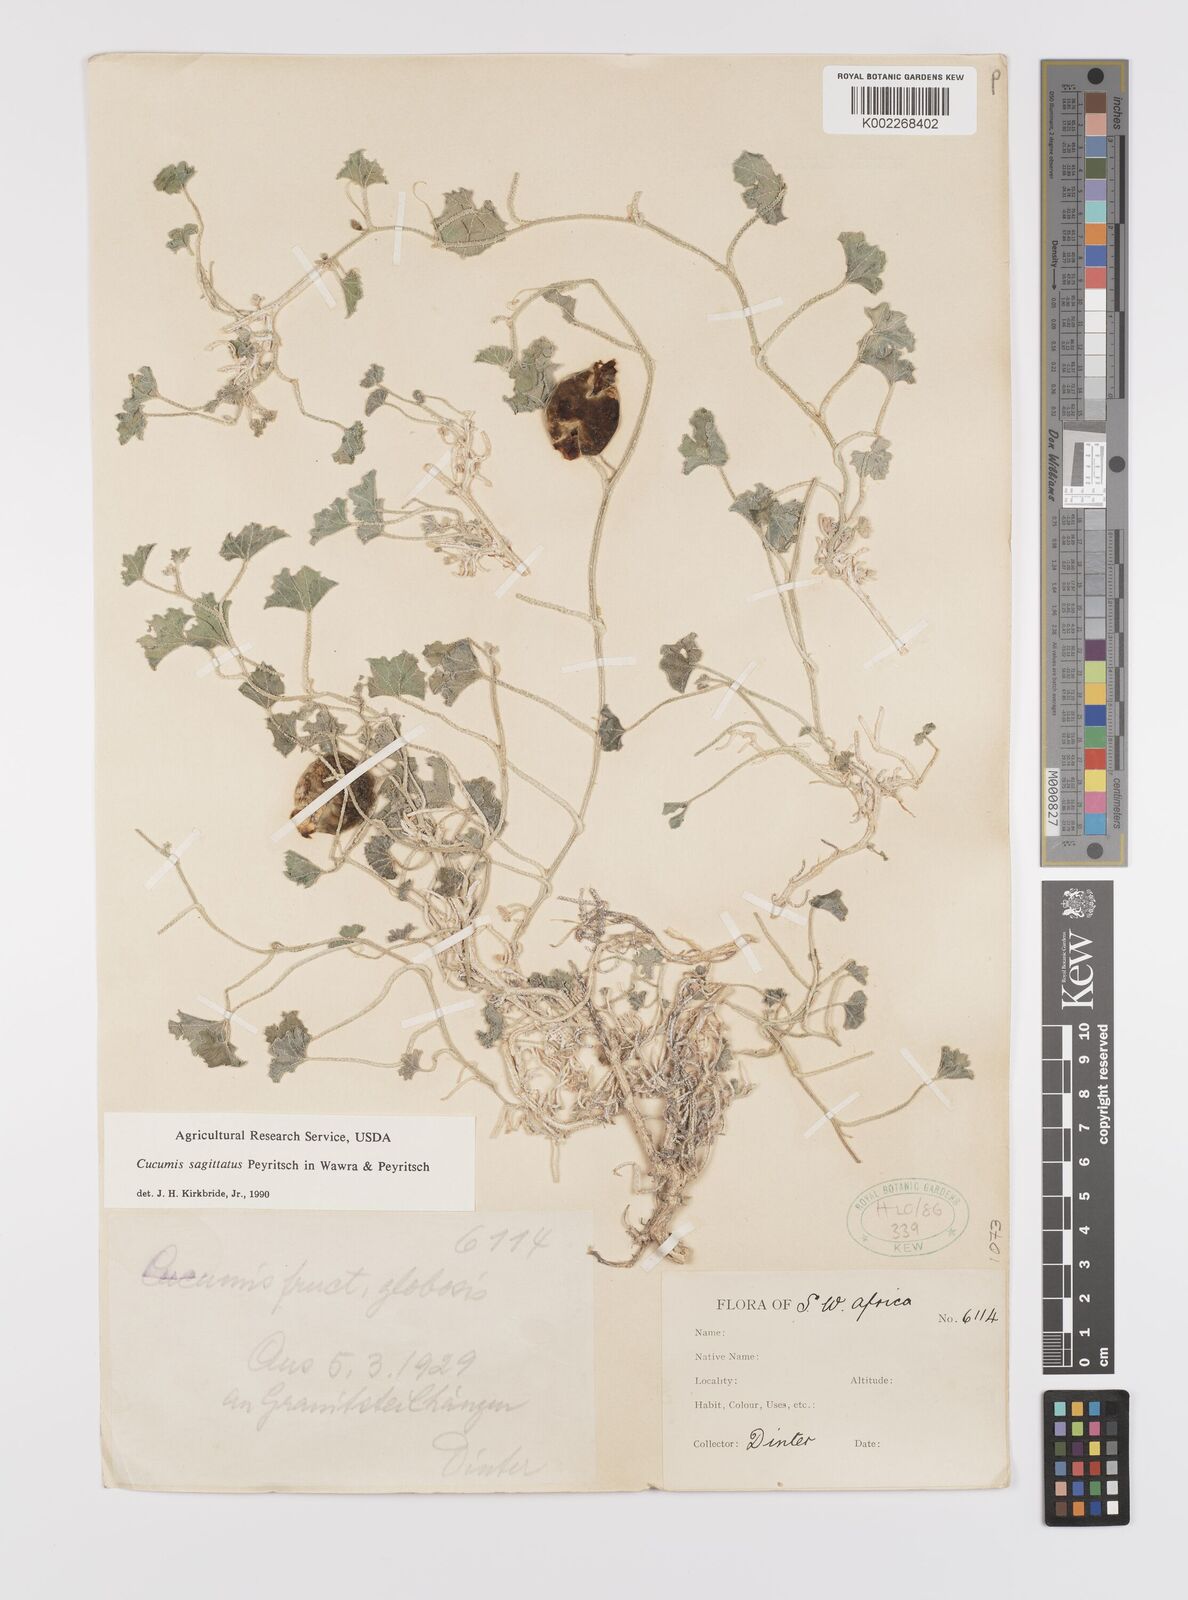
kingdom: Plantae
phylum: Tracheophyta
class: Magnoliopsida
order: Cucurbitales
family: Cucurbitaceae
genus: Cucumis
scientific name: Cucumis sagittatus
